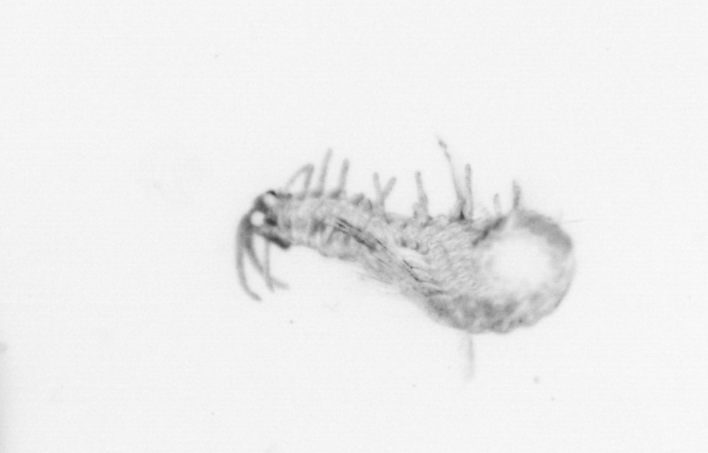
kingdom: Animalia
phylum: Annelida
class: Polychaeta
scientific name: Polychaeta
